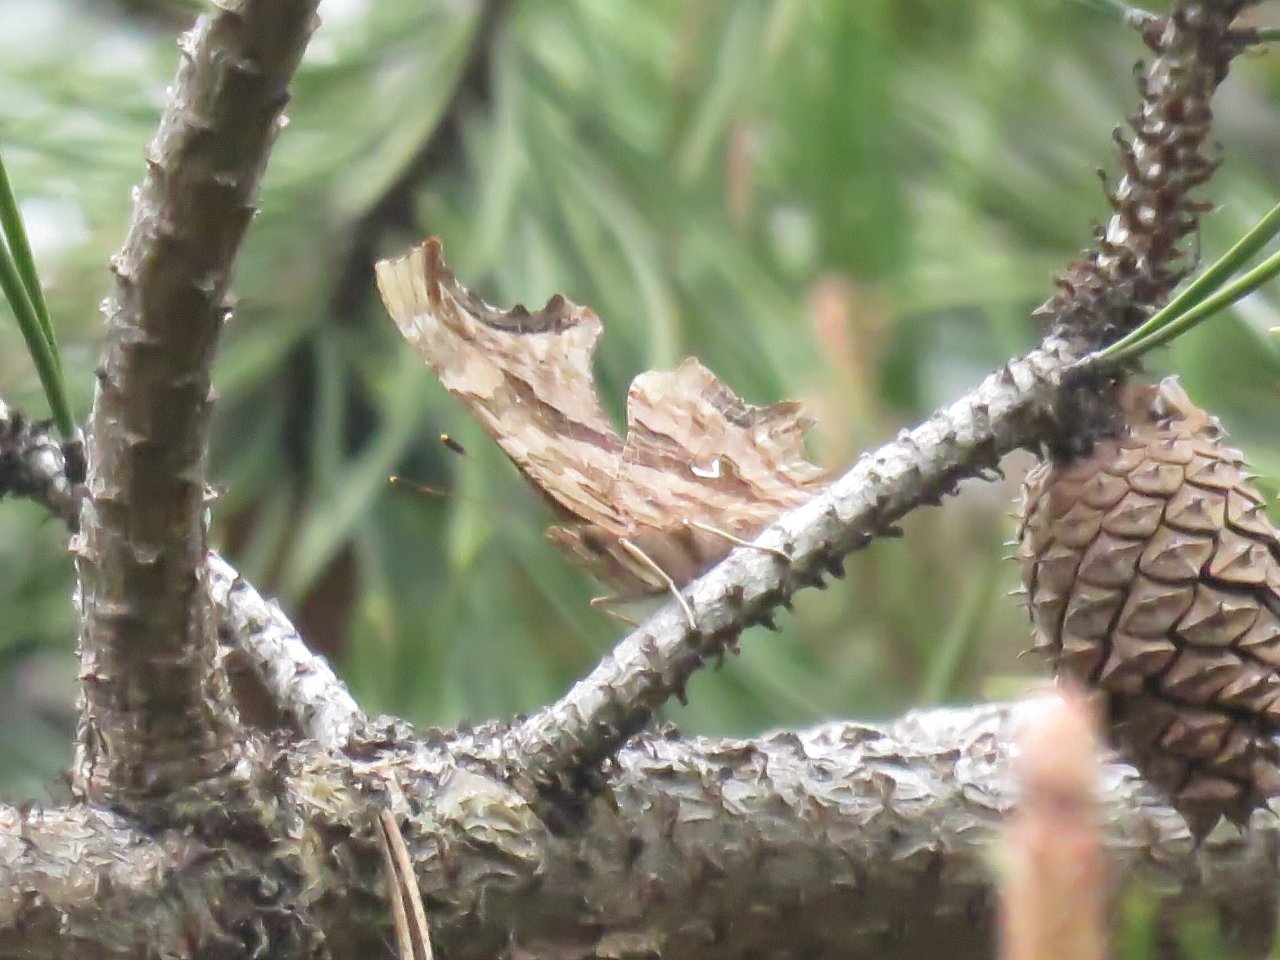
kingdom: Animalia
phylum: Arthropoda
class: Insecta
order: Lepidoptera
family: Nymphalidae
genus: Polygonia
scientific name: Polygonia satyrus
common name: Satyr Comma
